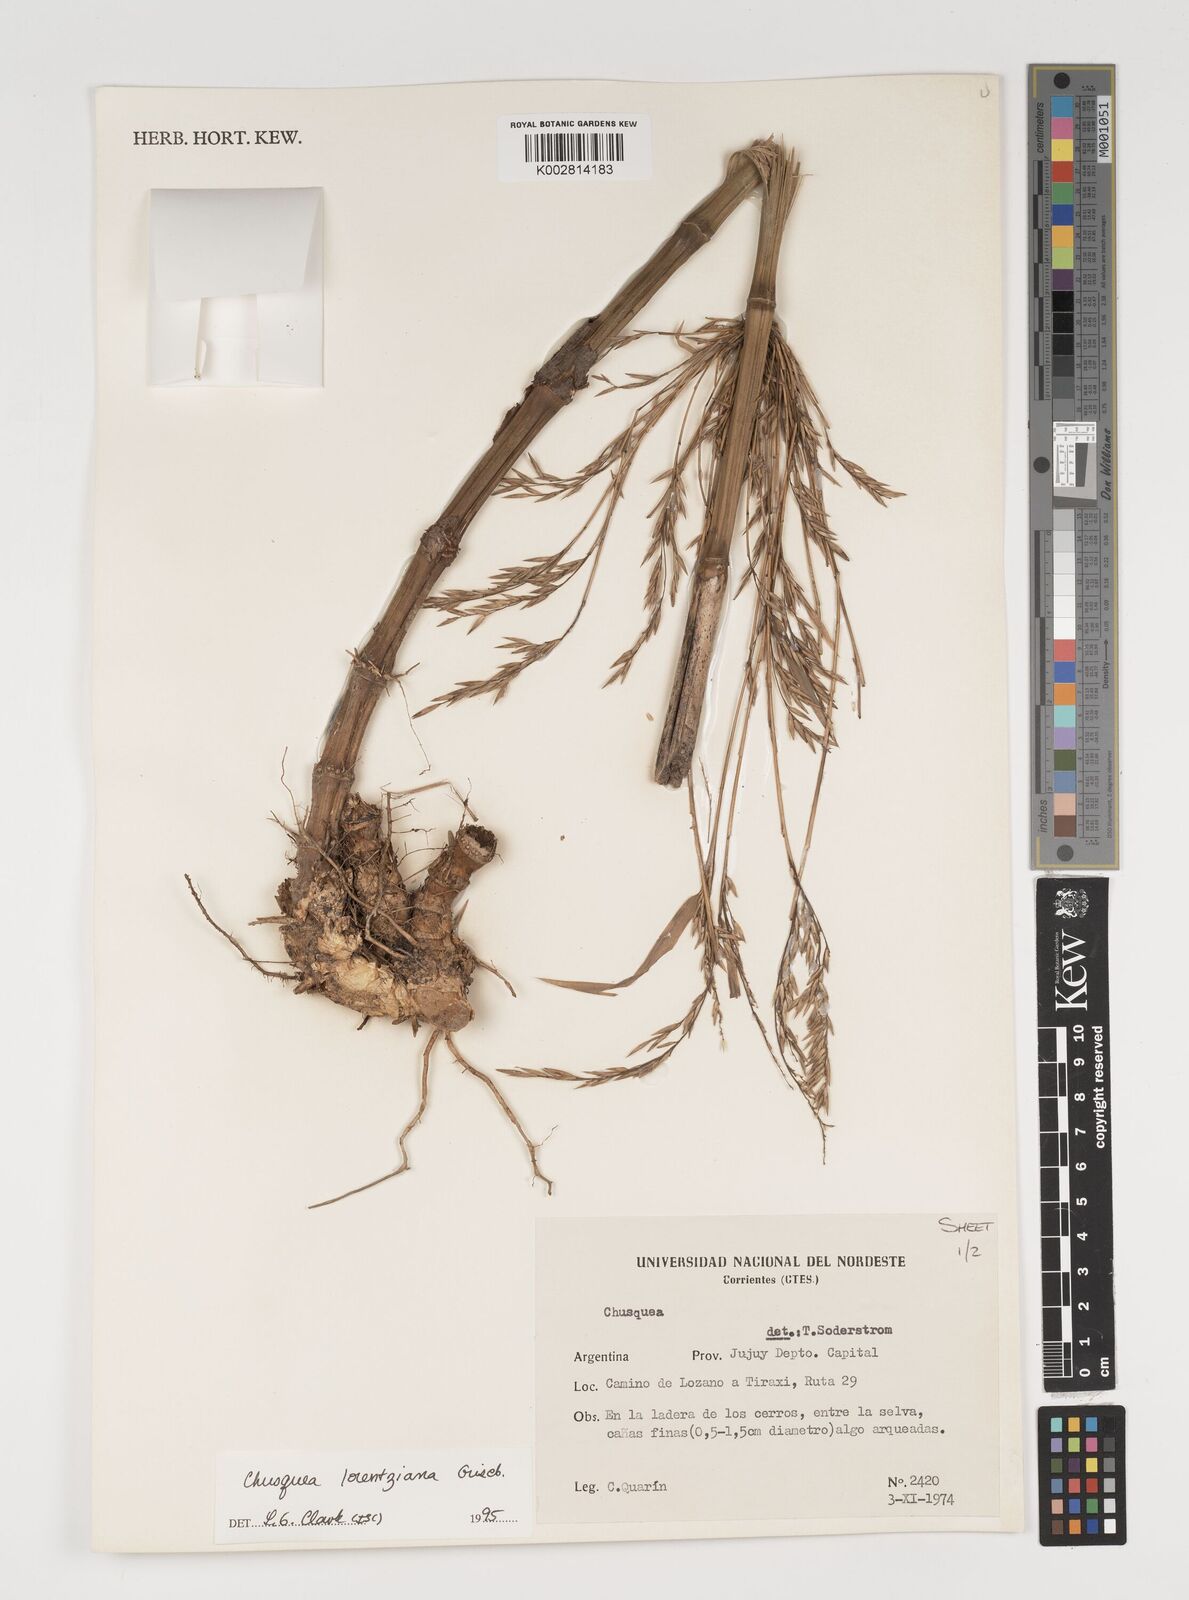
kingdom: Plantae
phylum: Tracheophyta
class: Liliopsida
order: Poales
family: Poaceae
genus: Chusquea
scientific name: Chusquea lorentziana
